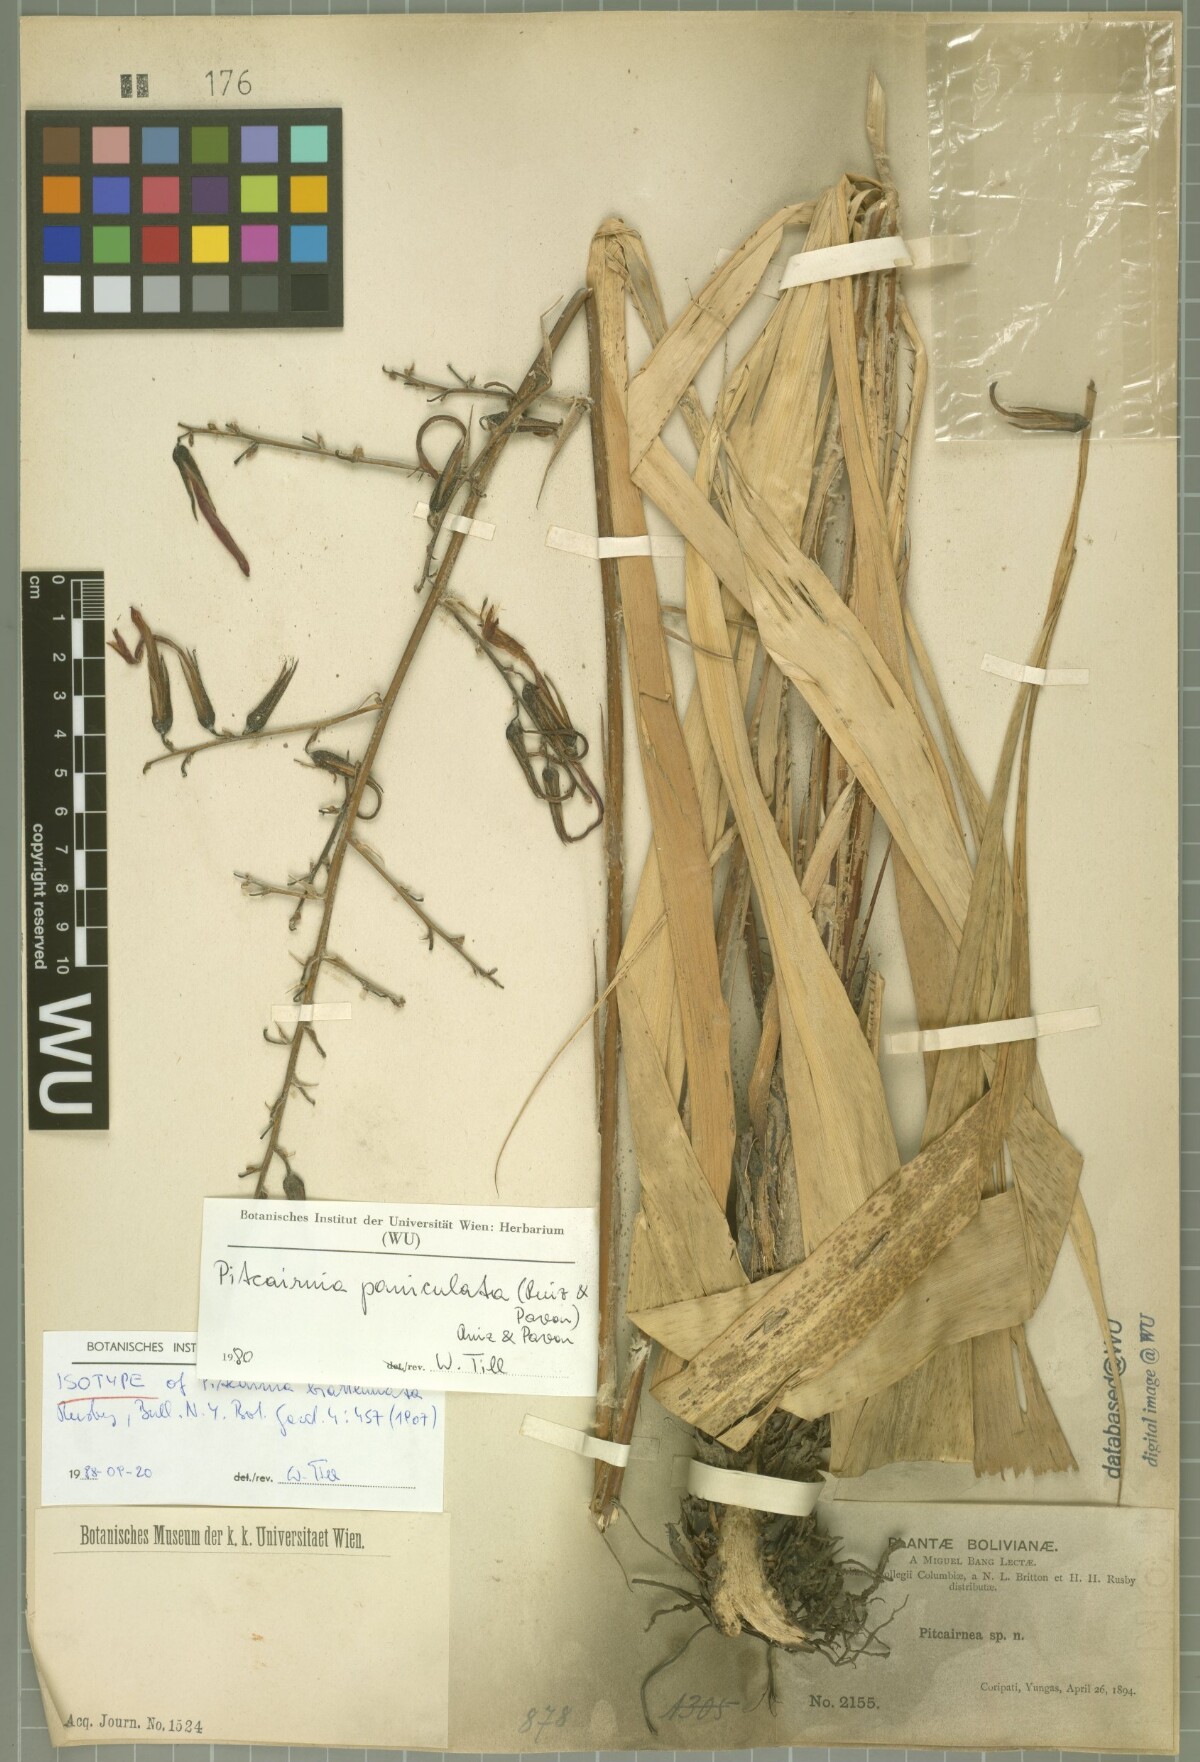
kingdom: Plantae
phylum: Tracheophyta
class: Liliopsida
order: Poales
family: Bromeliaceae
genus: Pitcairnia
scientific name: Pitcairnia paniculata
